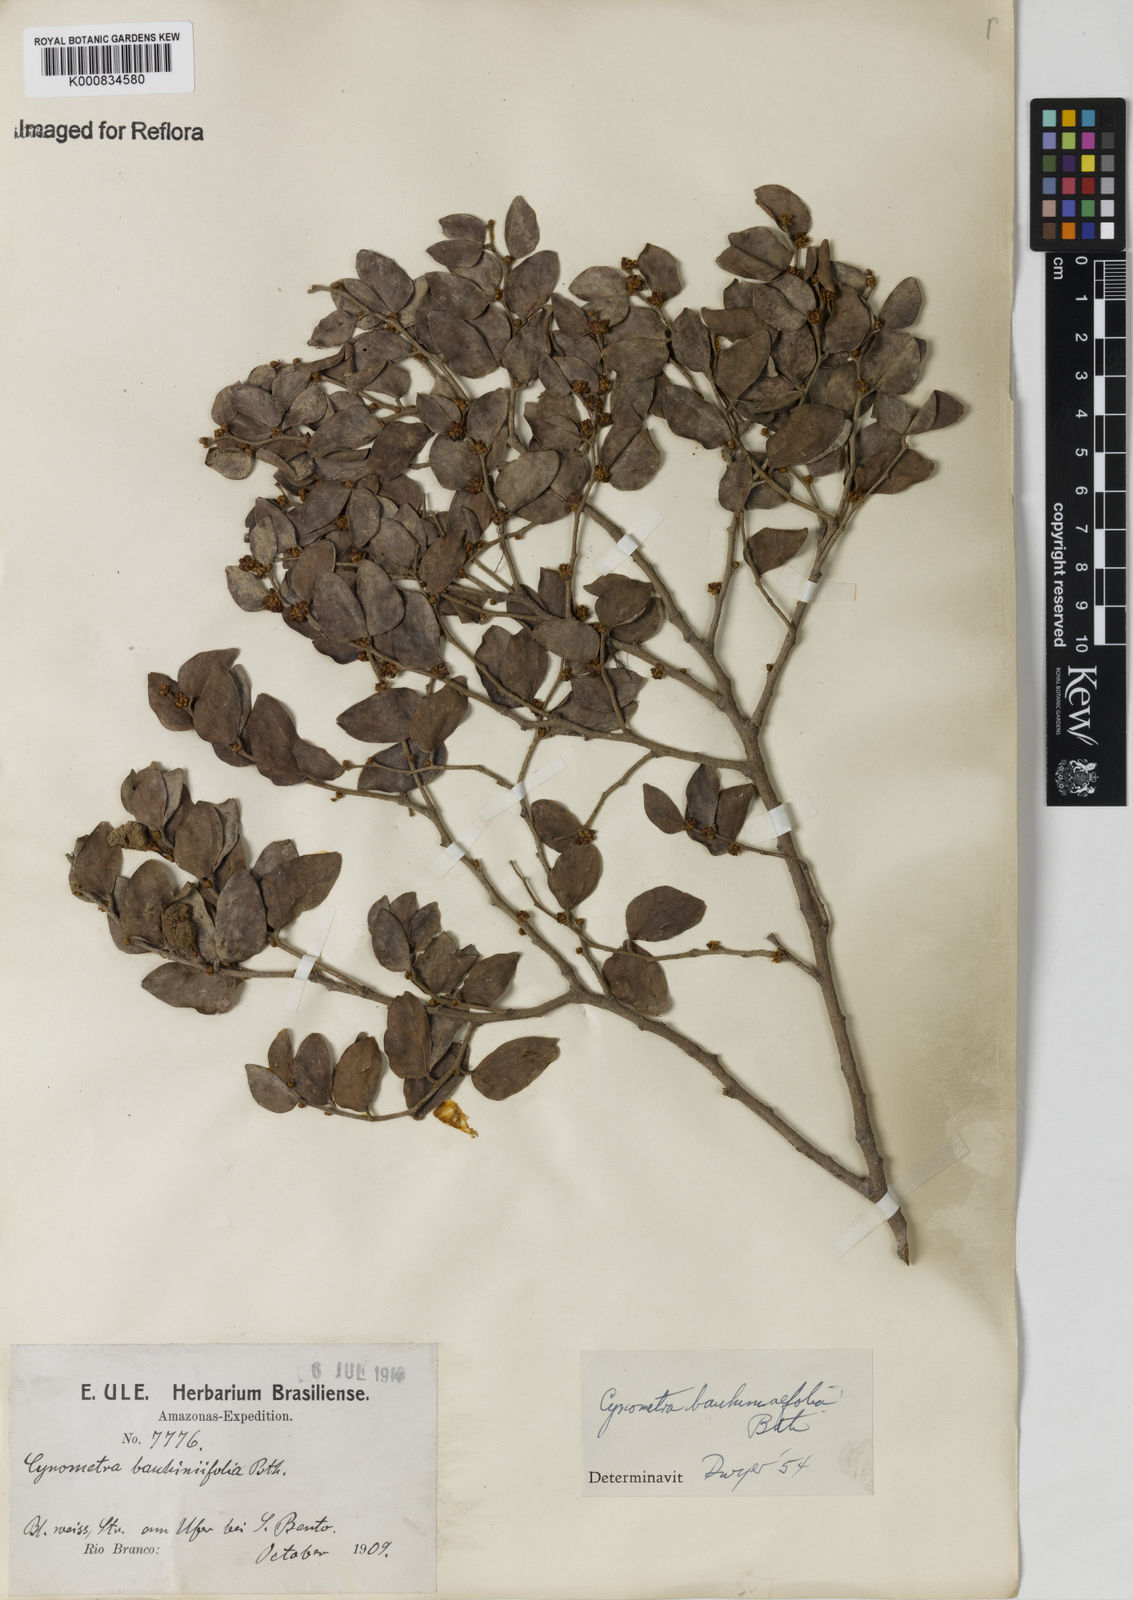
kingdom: Plantae
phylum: Tracheophyta
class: Magnoliopsida
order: Fabales
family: Fabaceae
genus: Cynometra
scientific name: Cynometra bauhiniifolia
